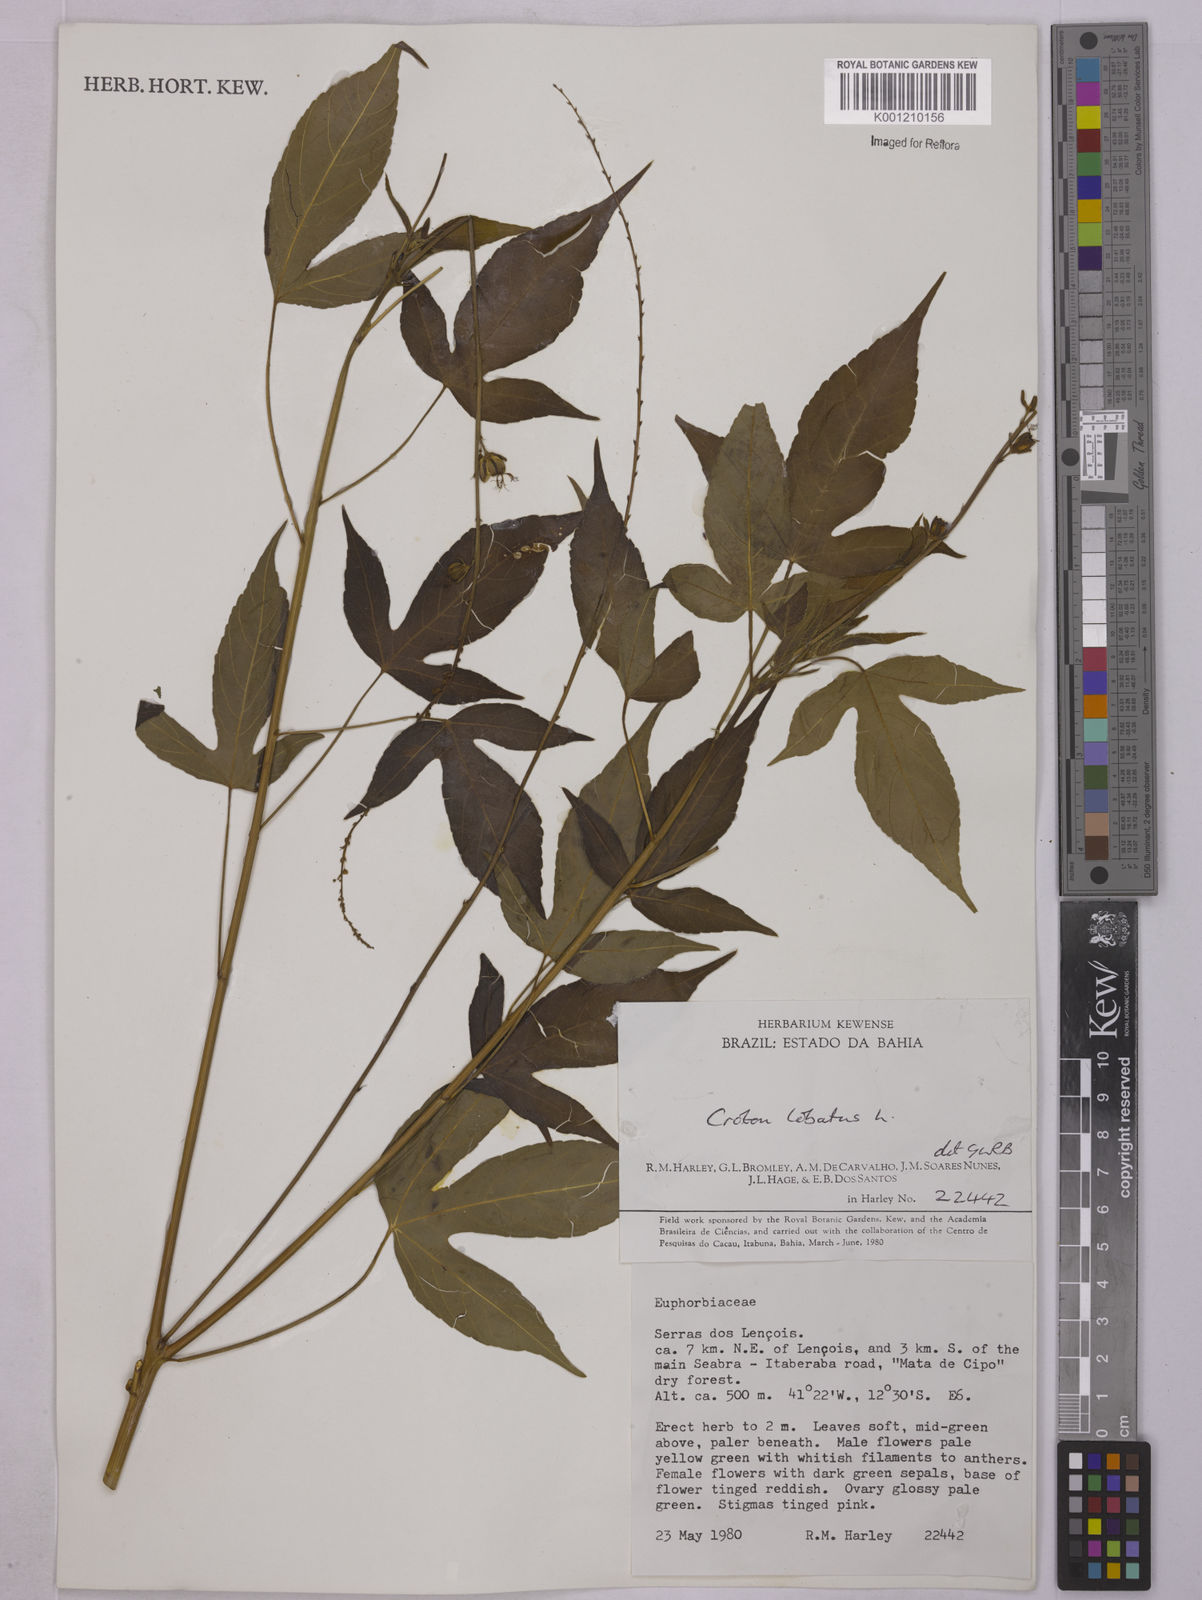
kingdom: Plantae
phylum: Tracheophyta
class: Magnoliopsida
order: Malpighiales
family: Euphorbiaceae
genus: Astraea
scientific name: Astraea lobata
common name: Lobed croton
